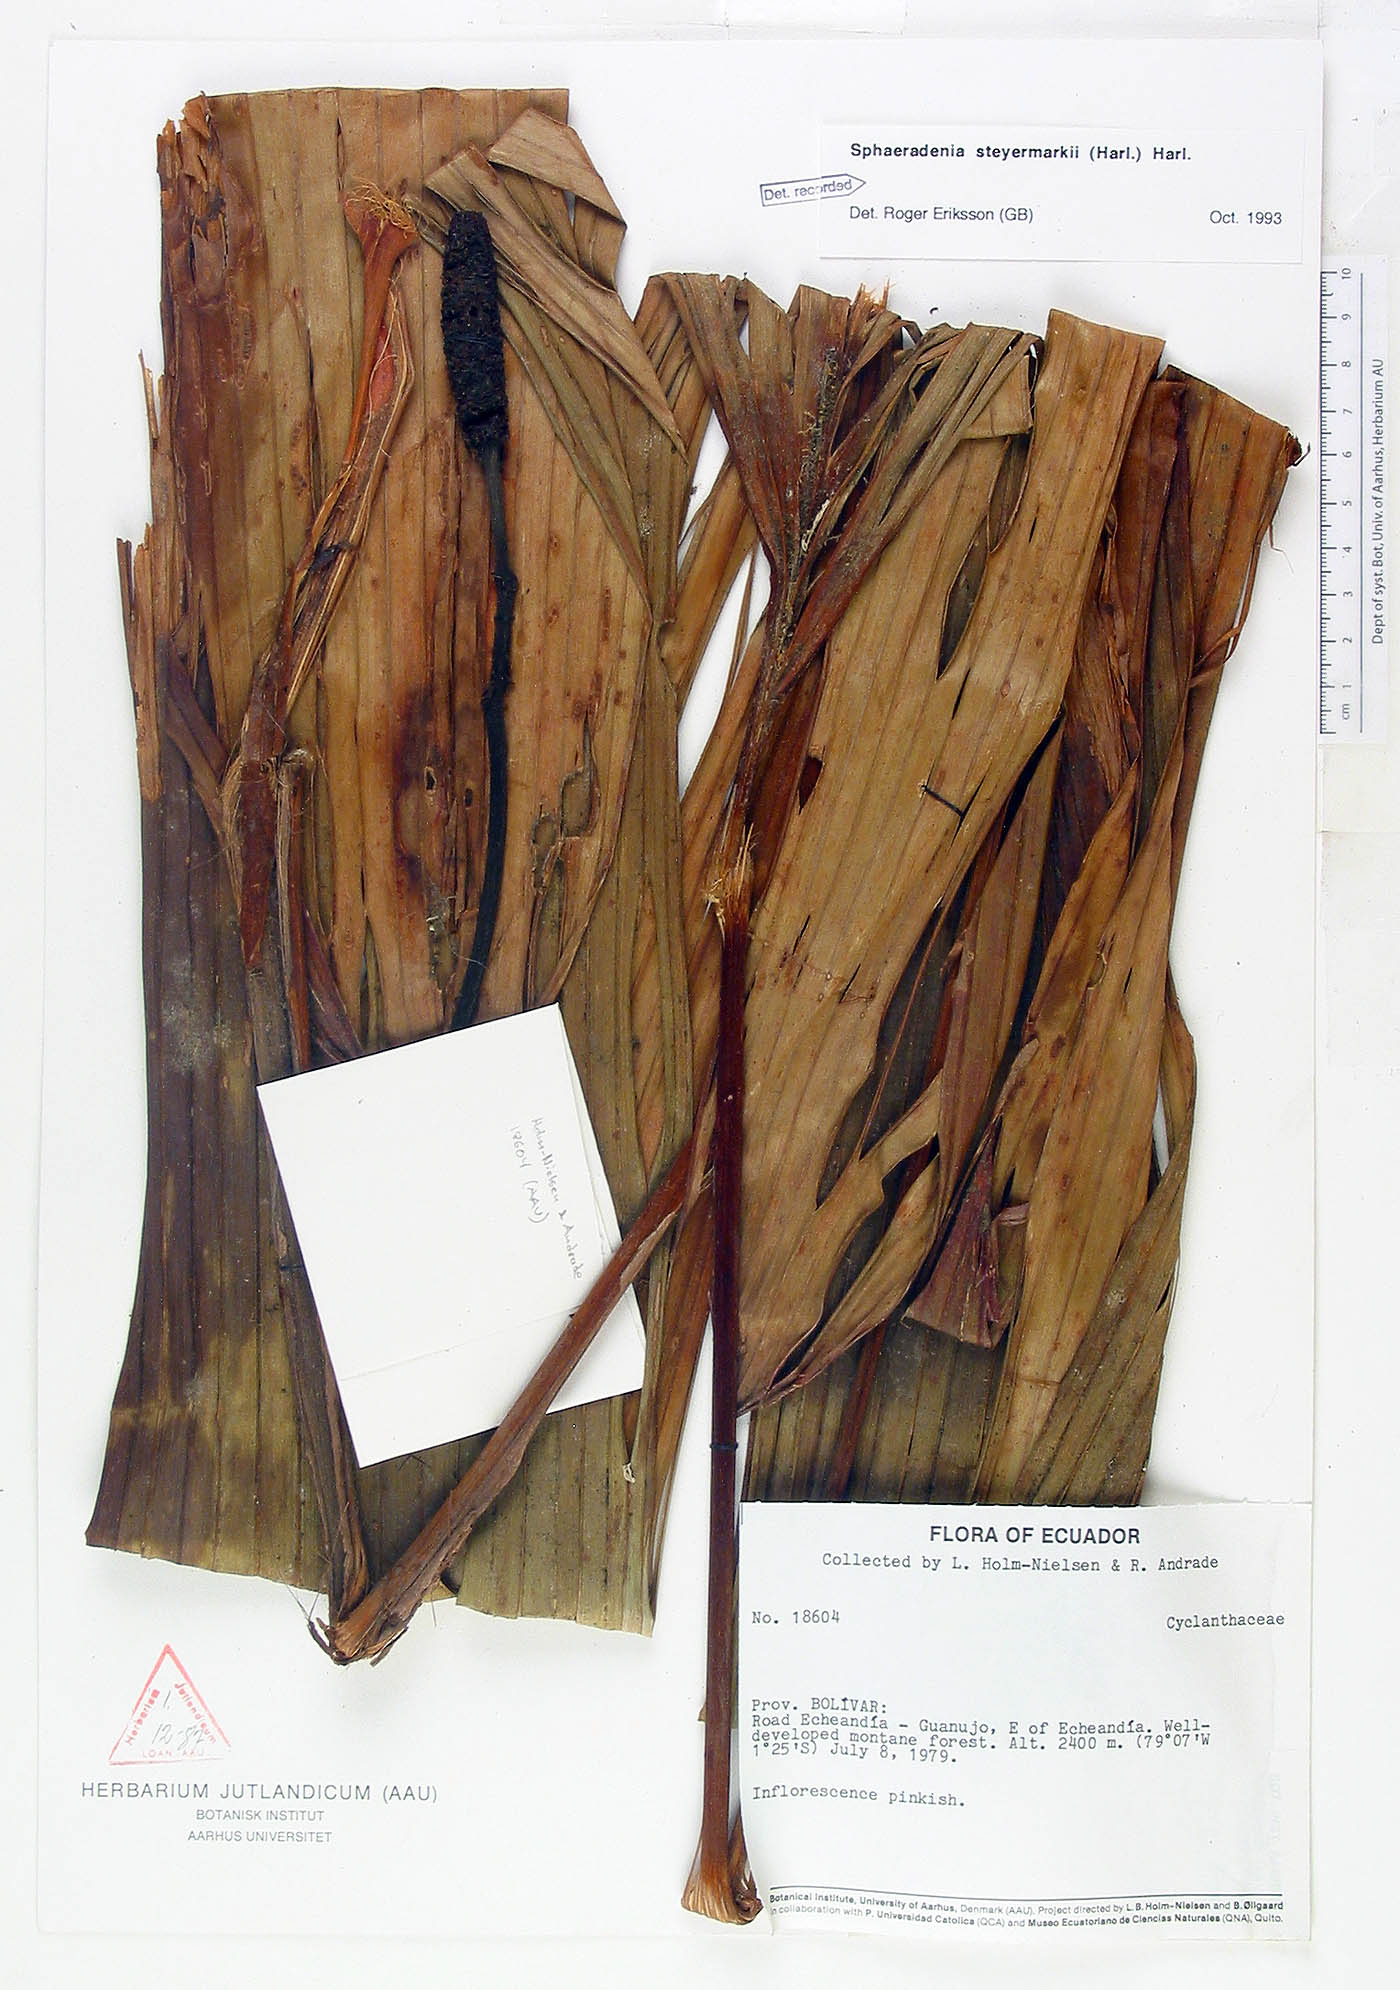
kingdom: Plantae
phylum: Tracheophyta
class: Liliopsida
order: Pandanales
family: Cyclanthaceae
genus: Sphaeradenia
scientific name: Sphaeradenia steyermarkii
